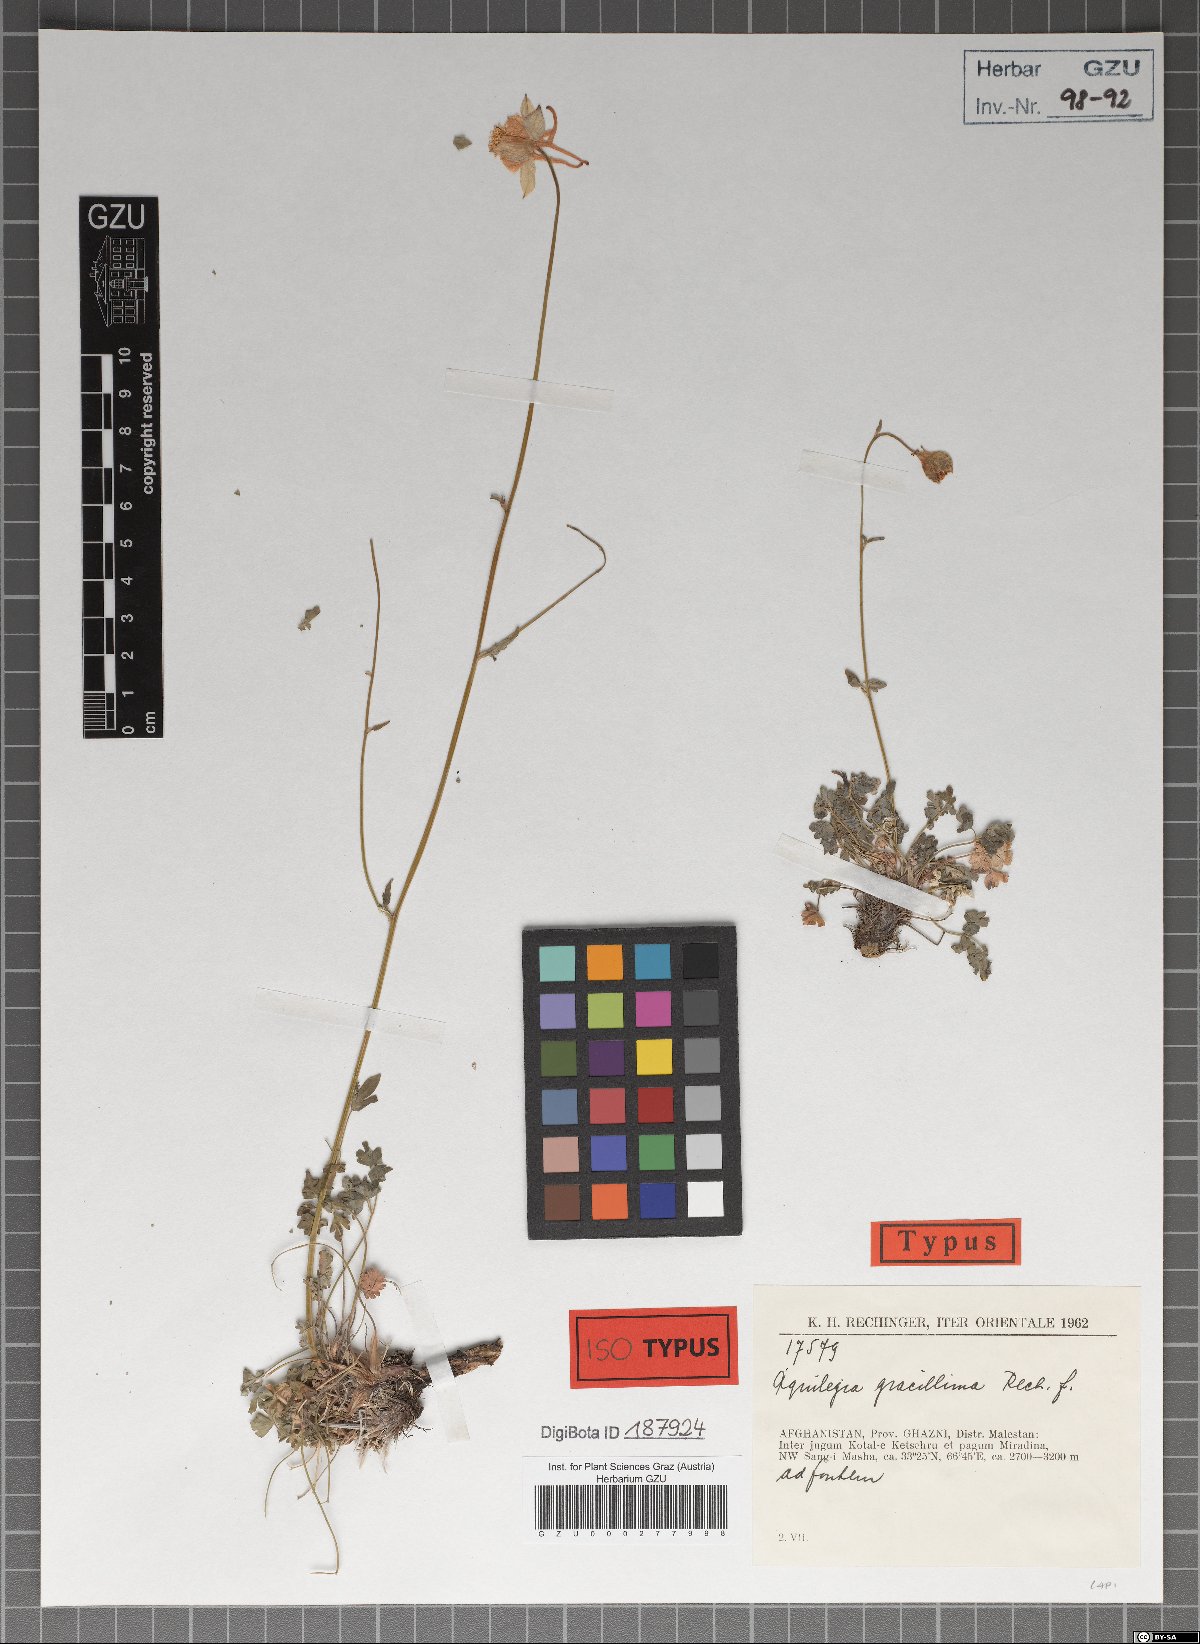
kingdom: Plantae
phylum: Tracheophyta
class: Magnoliopsida
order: Ranunculales
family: Ranunculaceae
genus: Aquilegia
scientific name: Aquilegia gracillima
